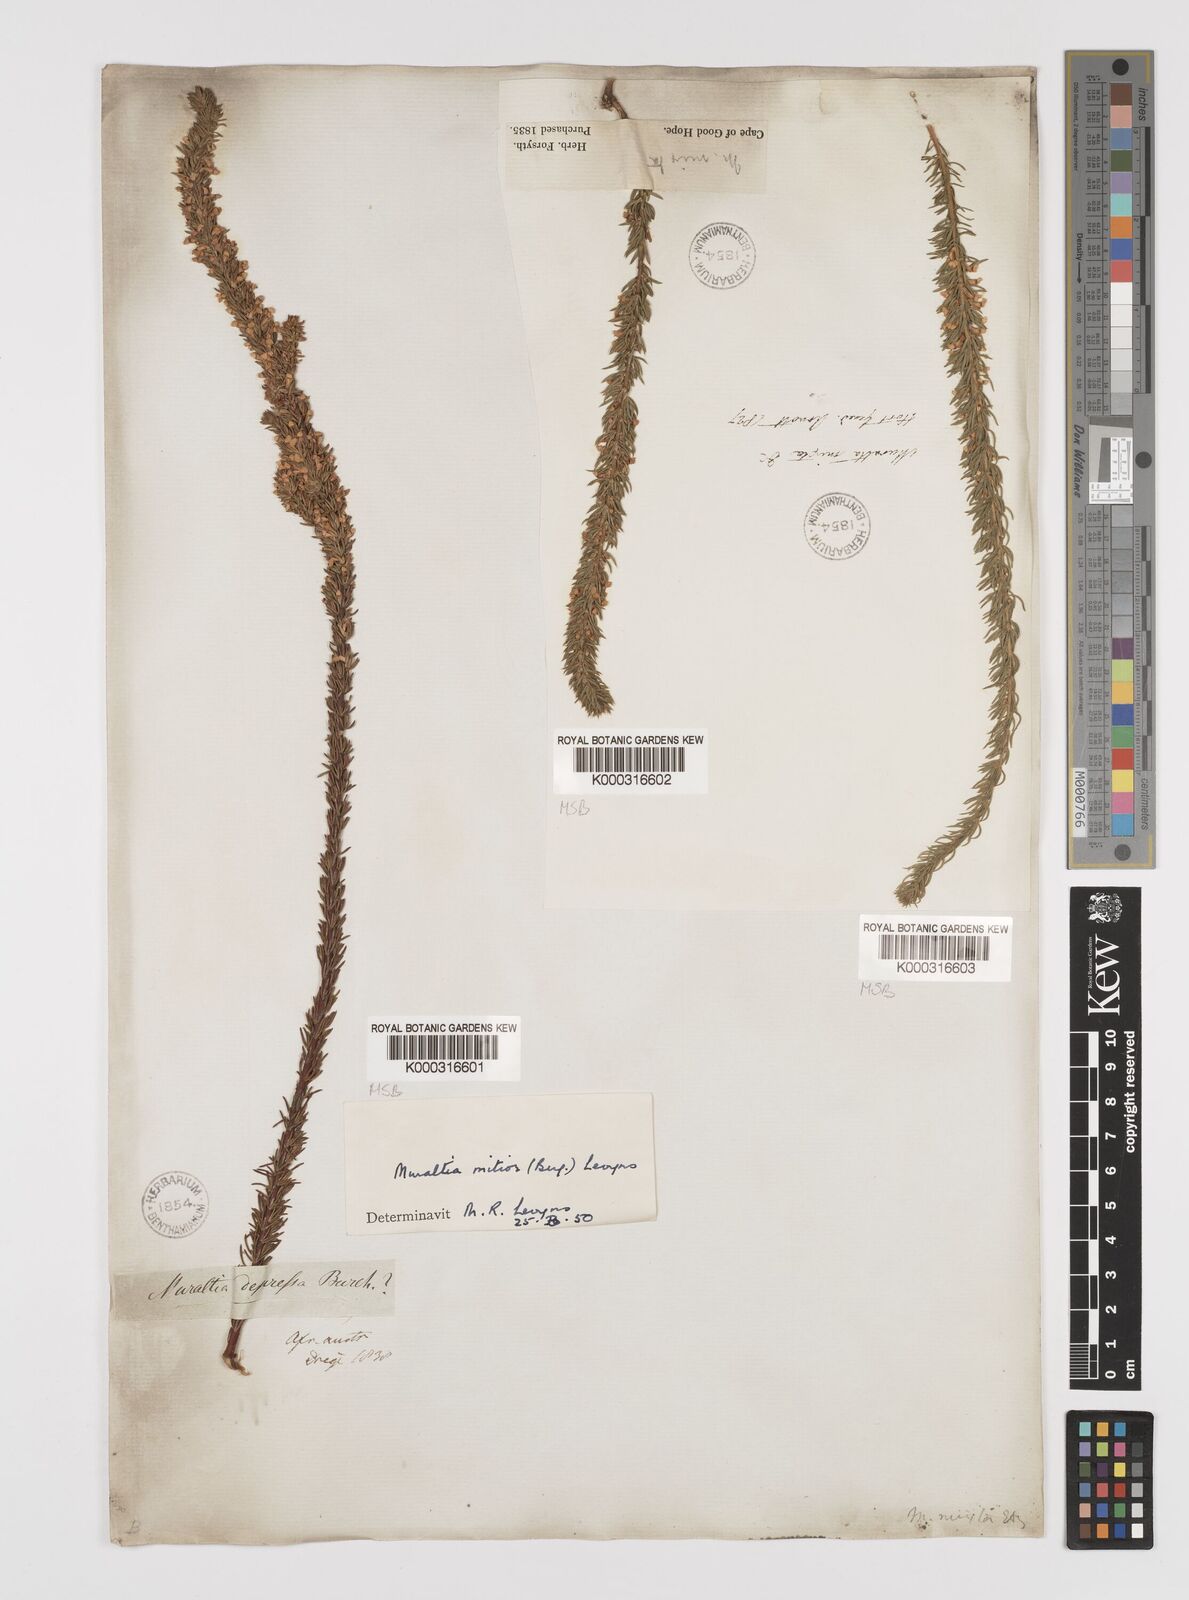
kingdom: Plantae
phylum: Tracheophyta
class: Magnoliopsida
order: Fabales
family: Polygalaceae
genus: Muraltia
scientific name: Muraltia
